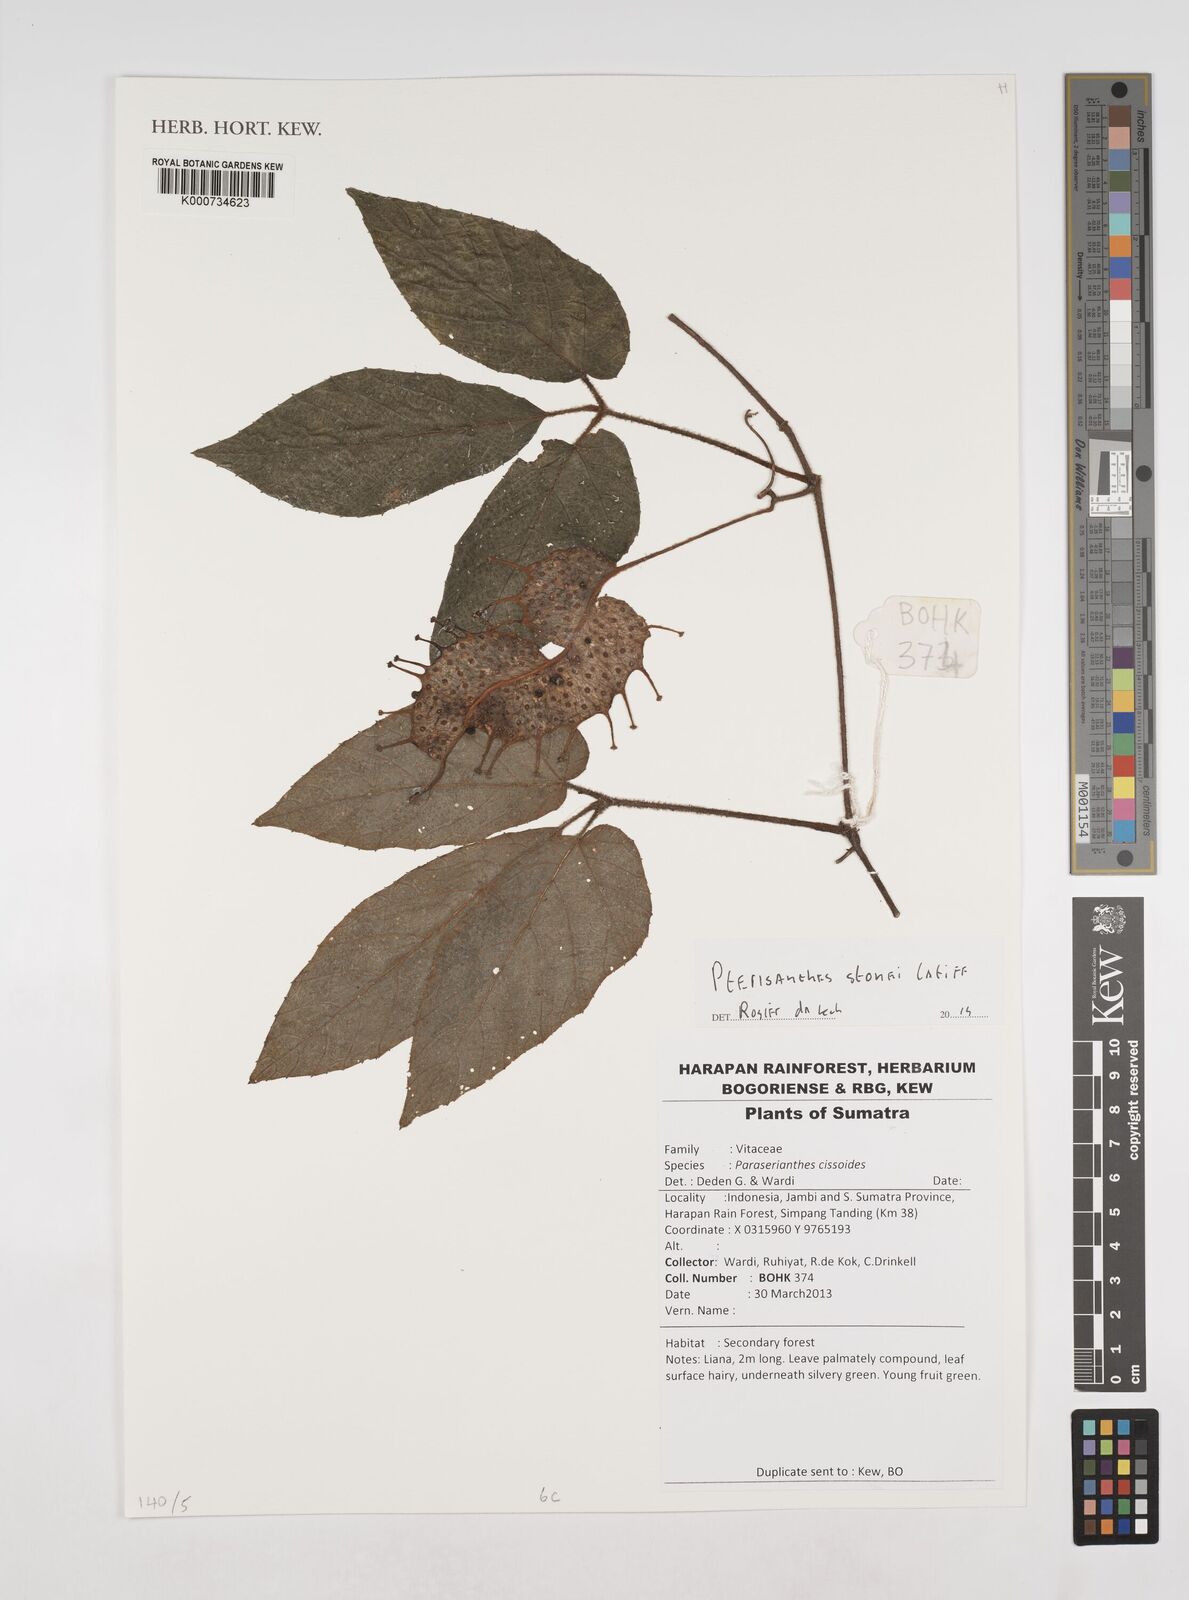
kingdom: Plantae
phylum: Tracheophyta
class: Magnoliopsida
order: Vitales
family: Vitaceae
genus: Pterisanthes
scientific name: Pterisanthes stonei
